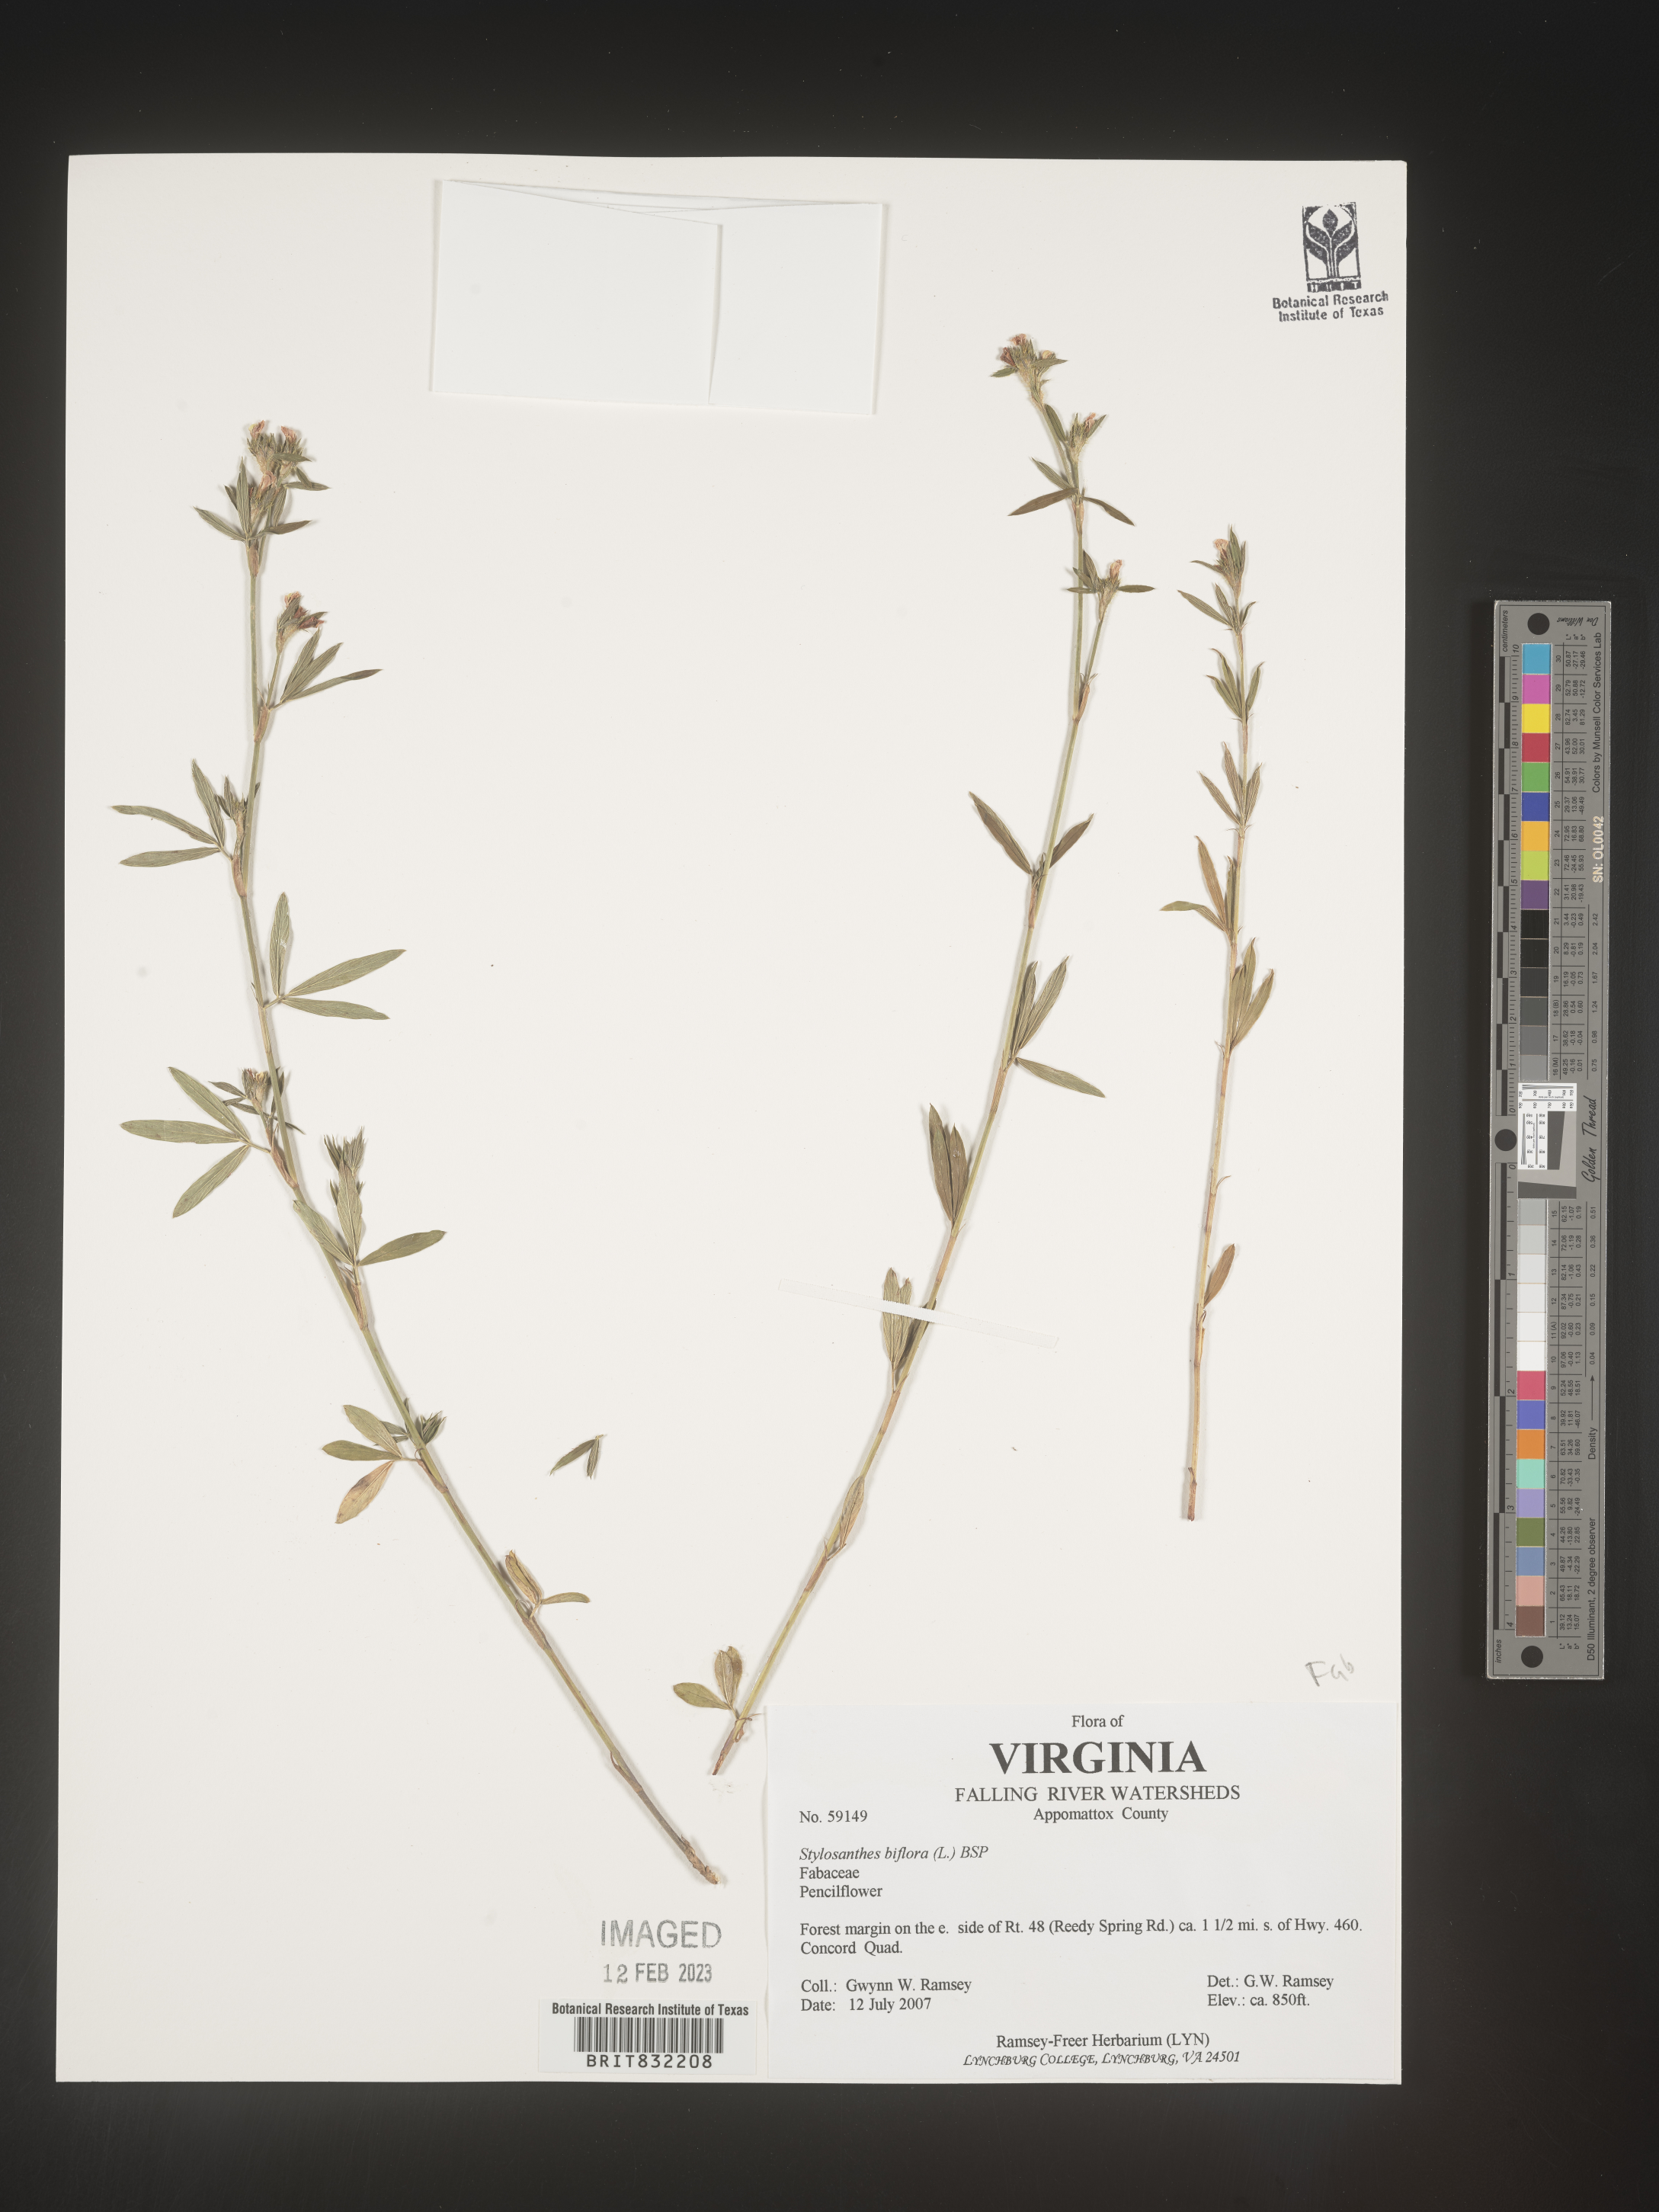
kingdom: Plantae
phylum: Tracheophyta
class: Magnoliopsida
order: Fabales
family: Fabaceae
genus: Stylosanthes
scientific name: Stylosanthes biflora
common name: Two-flower pencil-flower
